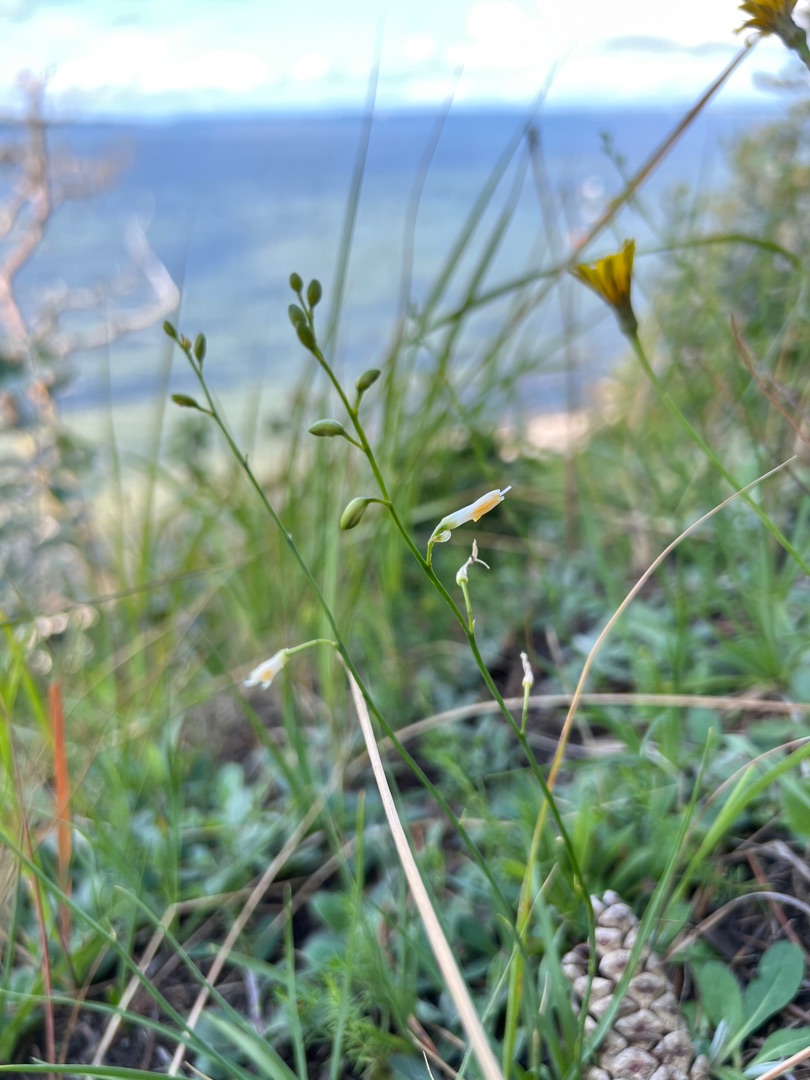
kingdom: Plantae
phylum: Tracheophyta
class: Liliopsida
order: Asparagales
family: Asparagaceae
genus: Anthericum
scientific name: Anthericum ramosum
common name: Grenet edderkopurt
